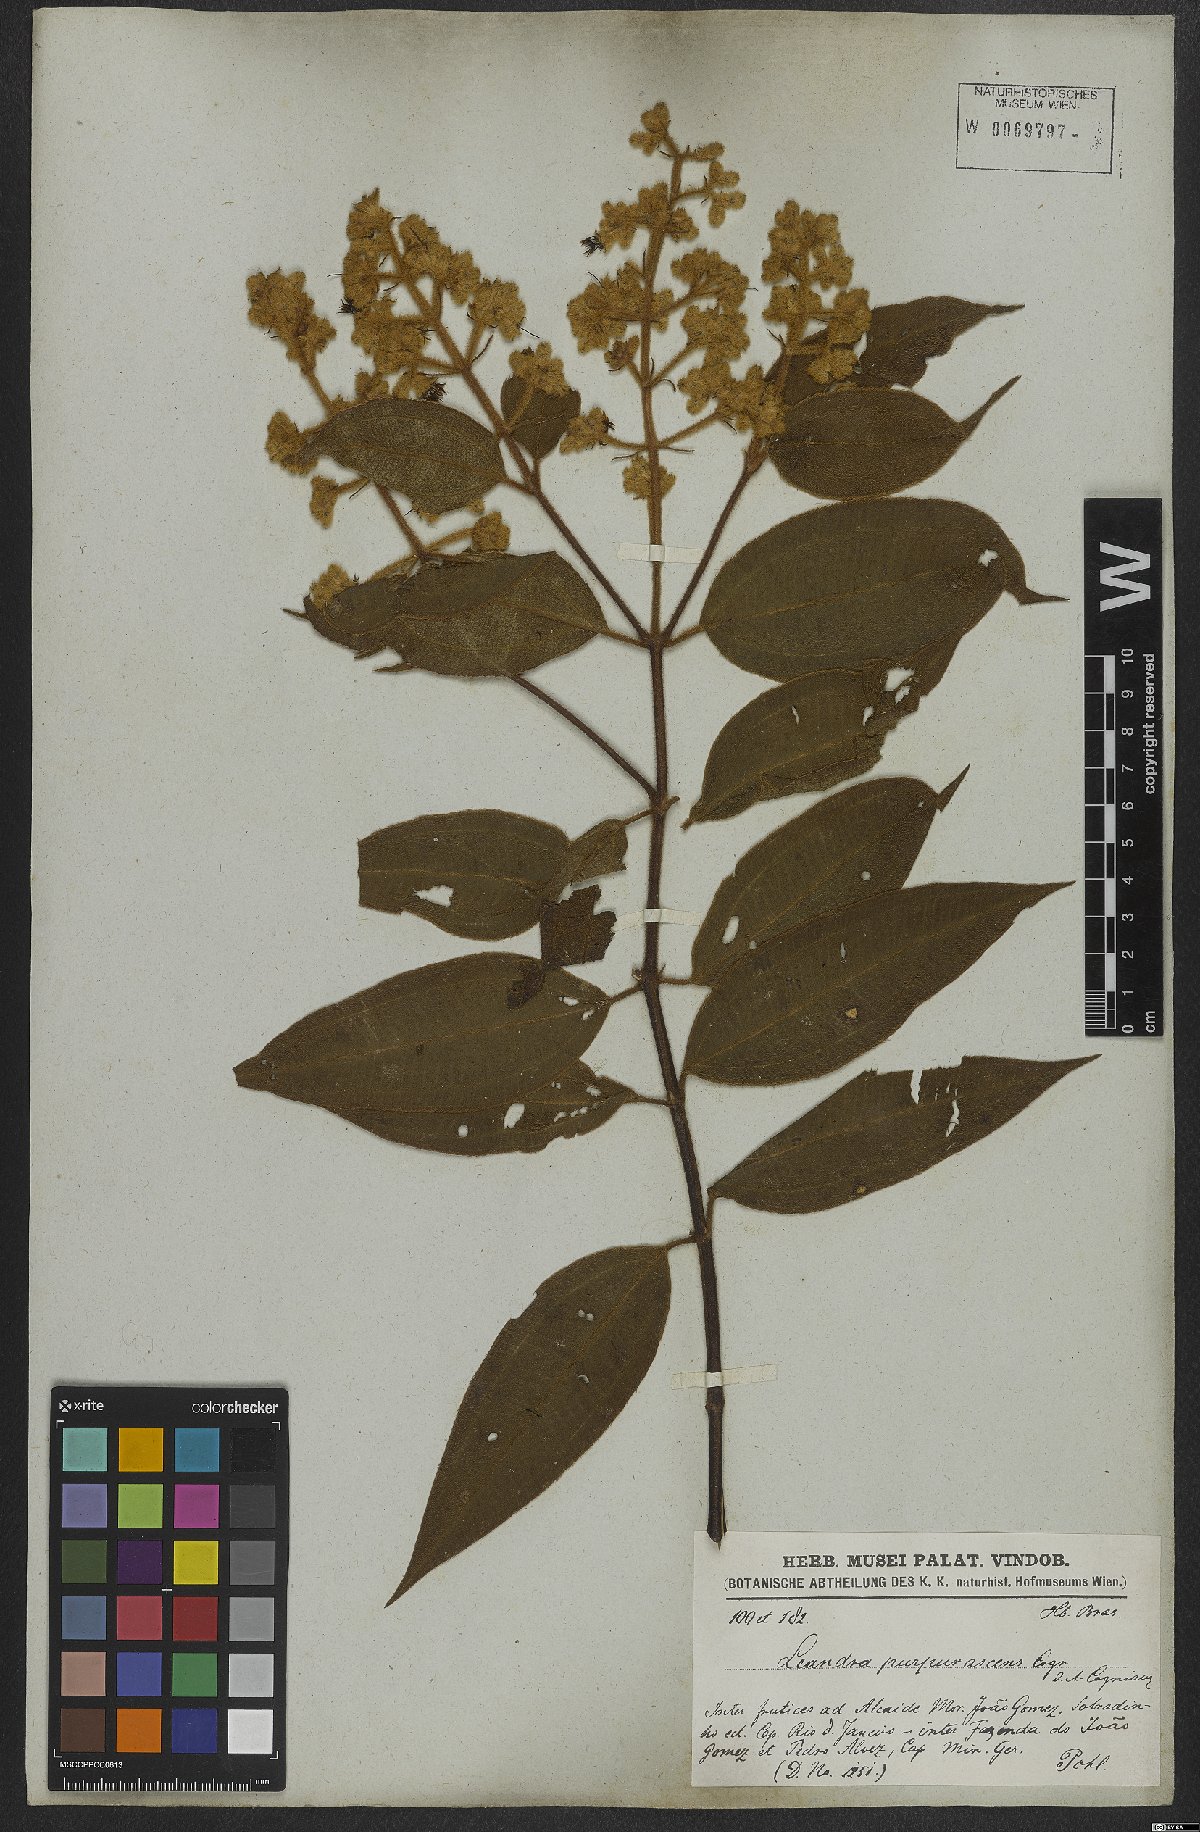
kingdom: Plantae
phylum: Tracheophyta
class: Magnoliopsida
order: Myrtales
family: Melastomataceae
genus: Miconia
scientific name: Miconia microstachya
